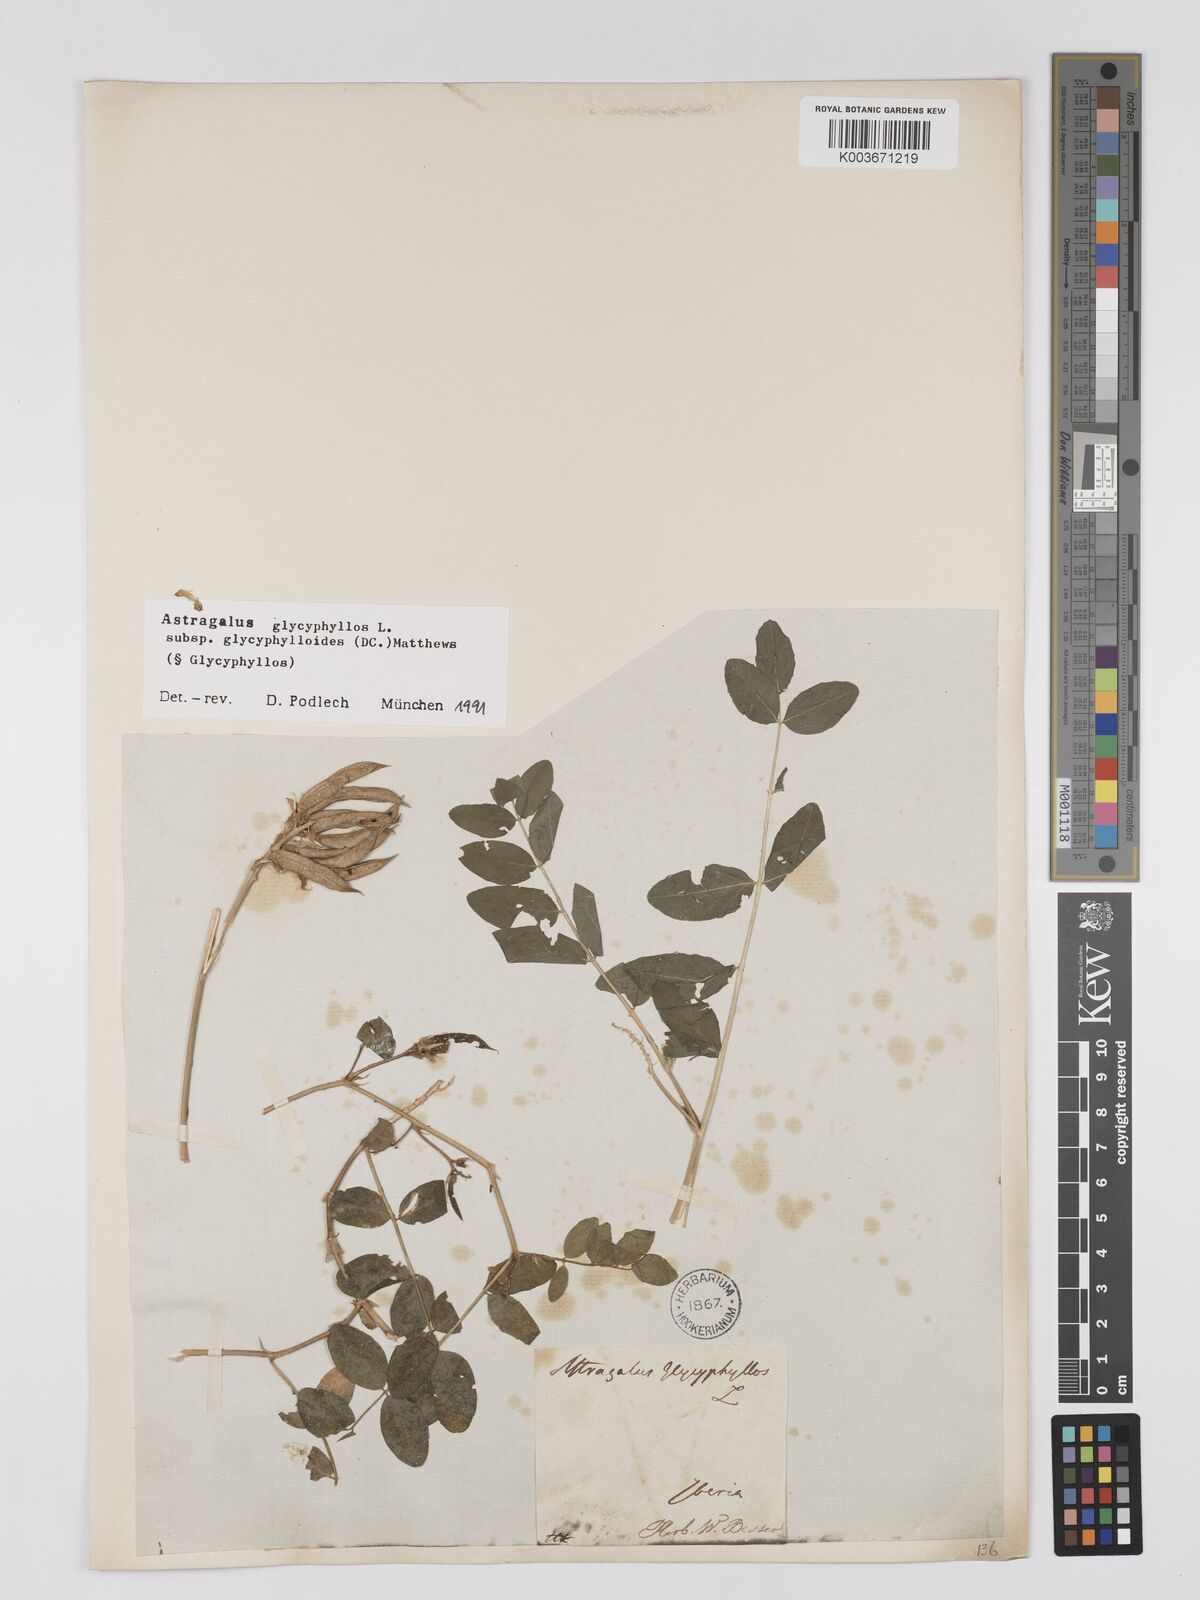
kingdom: Plantae
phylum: Tracheophyta
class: Magnoliopsida
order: Fabales
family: Fabaceae
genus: Astragalus
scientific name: Astragalus glycyphyllos
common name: Wild liquorice
